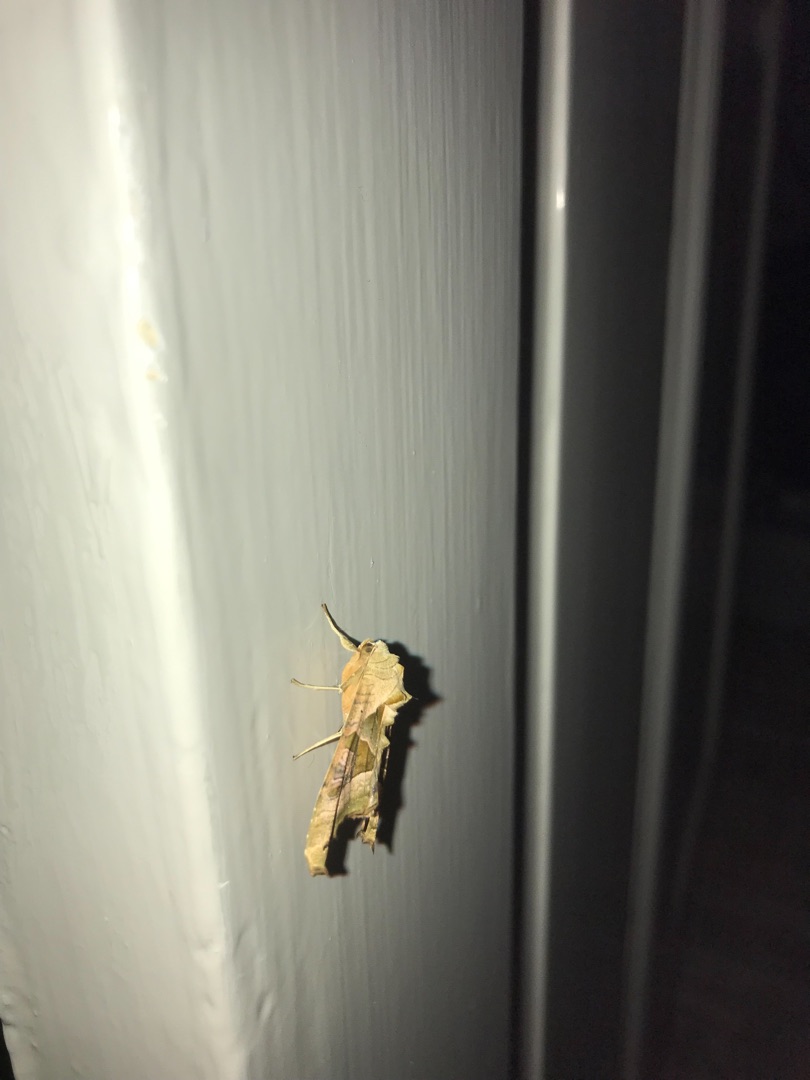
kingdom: Animalia
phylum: Arthropoda
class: Insecta
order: Lepidoptera
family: Noctuidae
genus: Phlogophora
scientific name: Phlogophora meticulosa
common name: Agatugle
